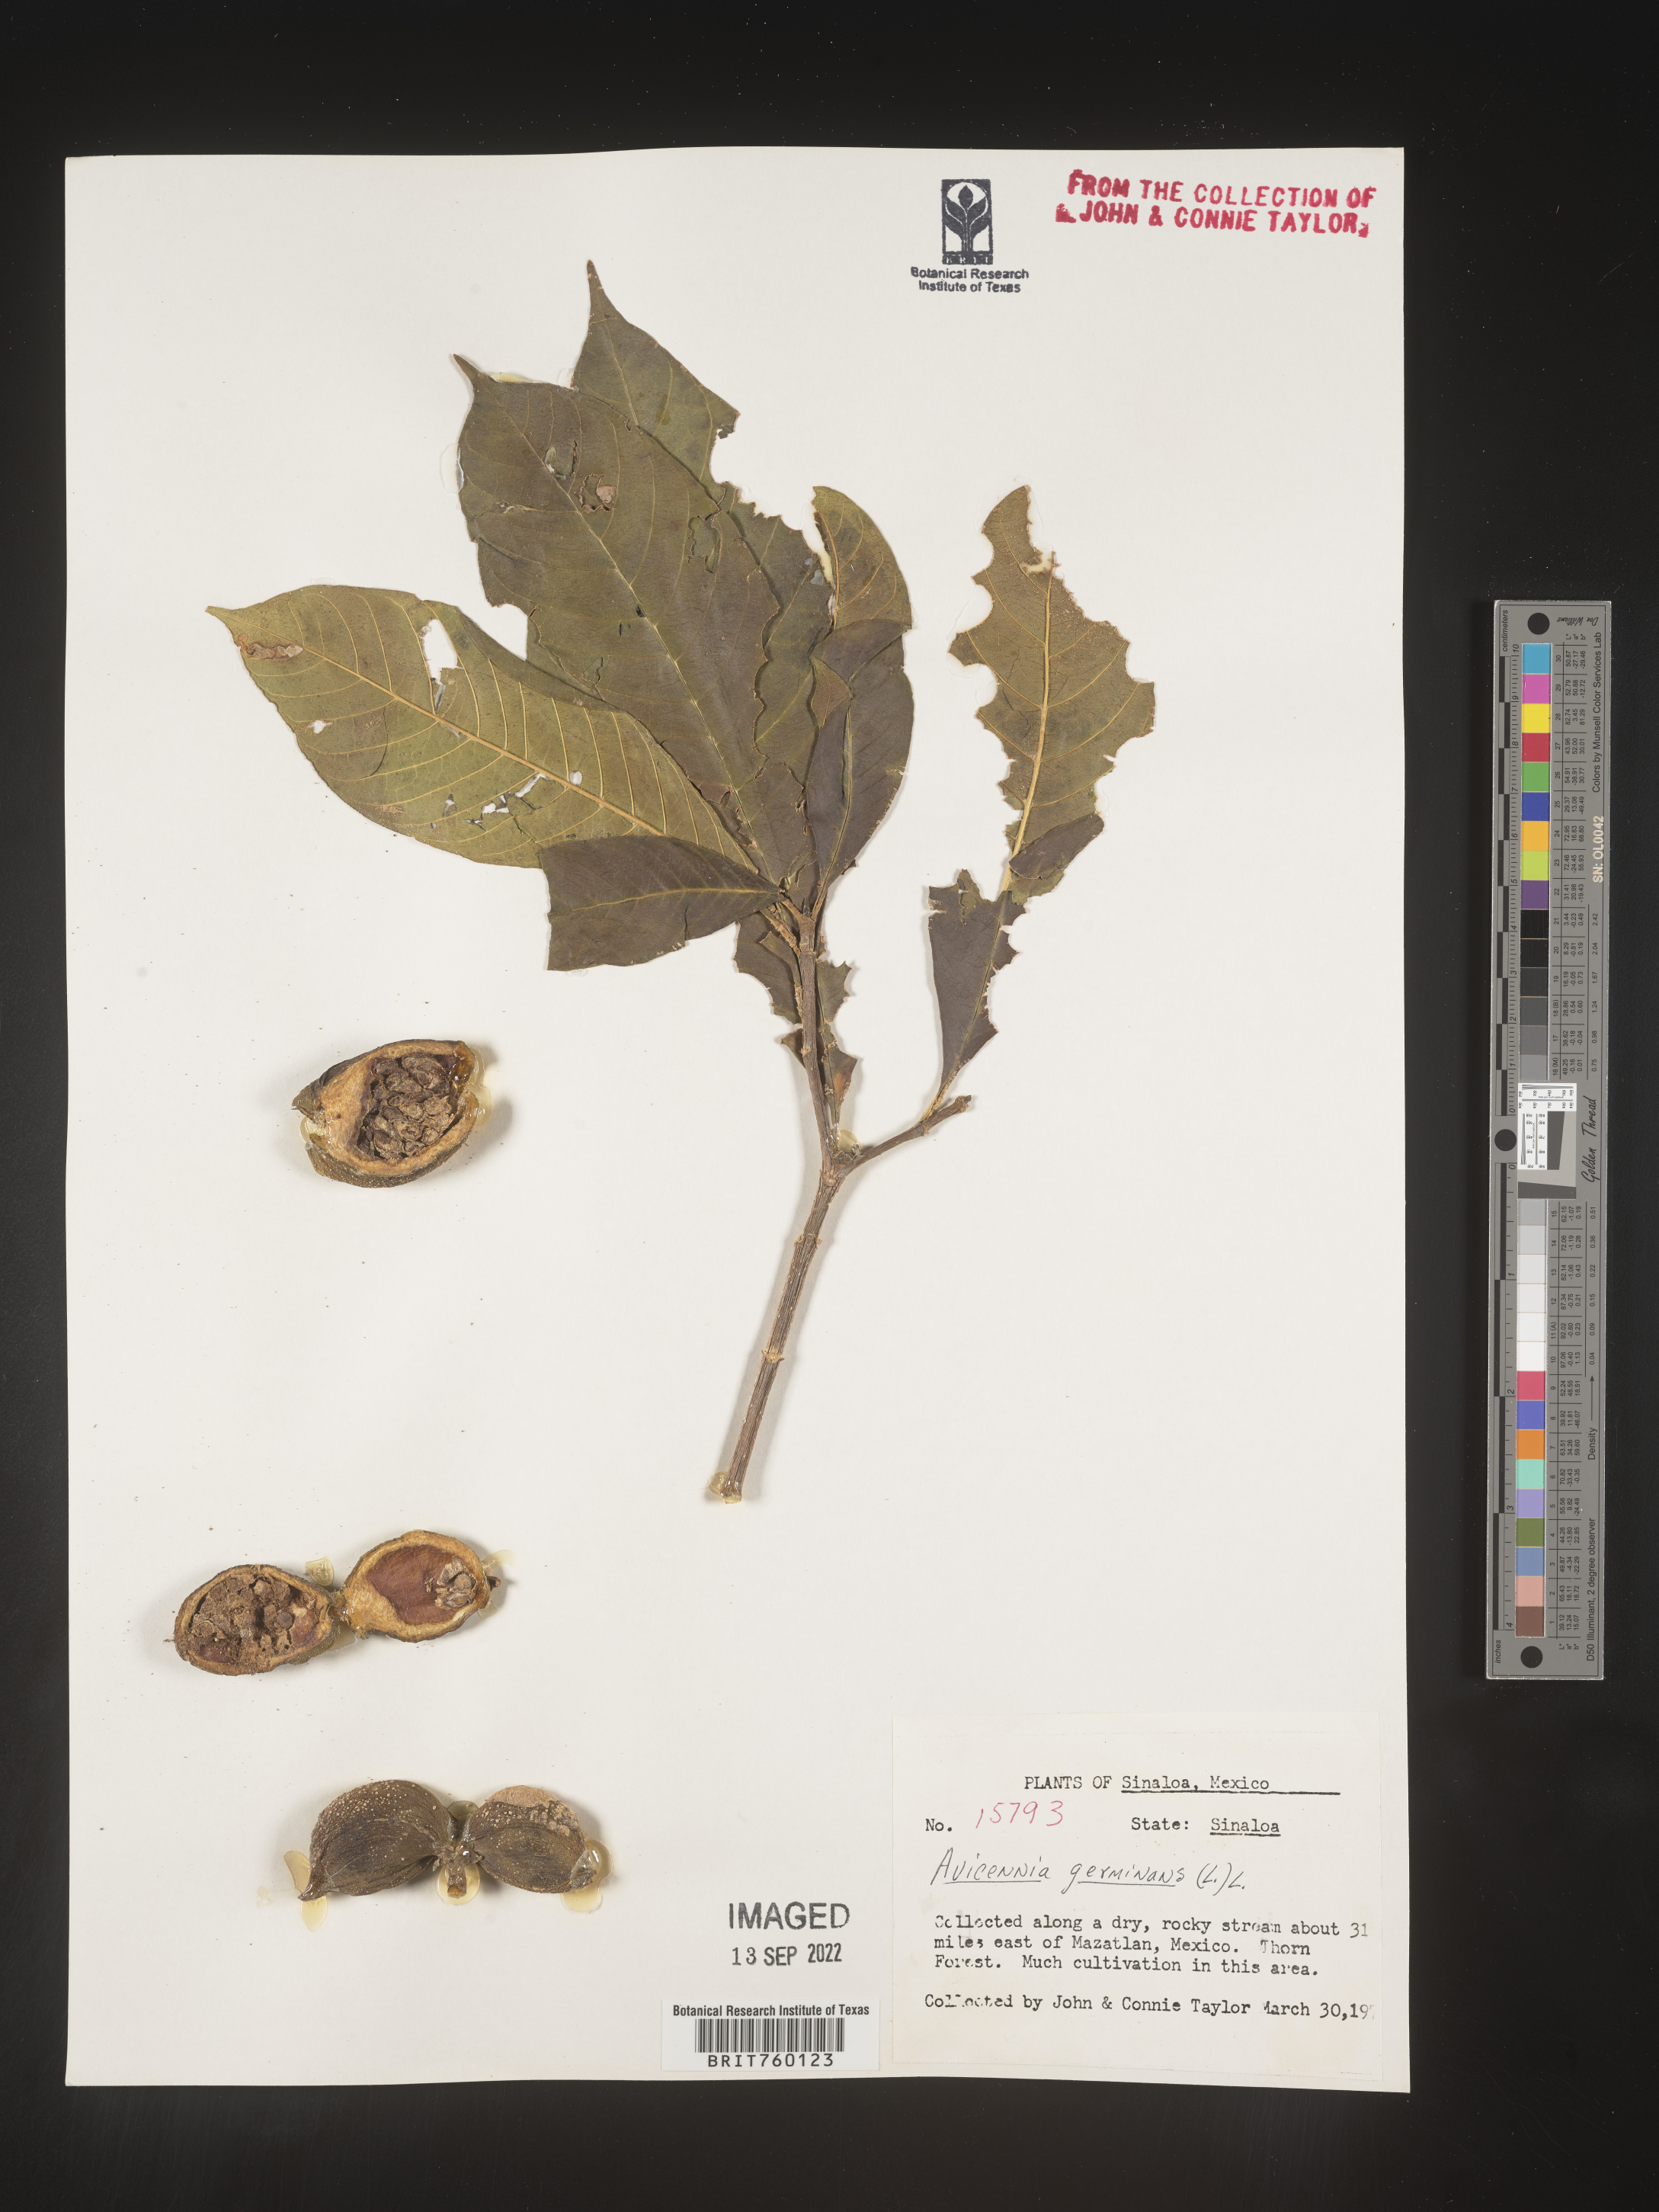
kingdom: Plantae
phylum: Tracheophyta
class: Magnoliopsida
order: Lamiales
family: Acanthaceae
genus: Avicennia
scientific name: Avicennia
